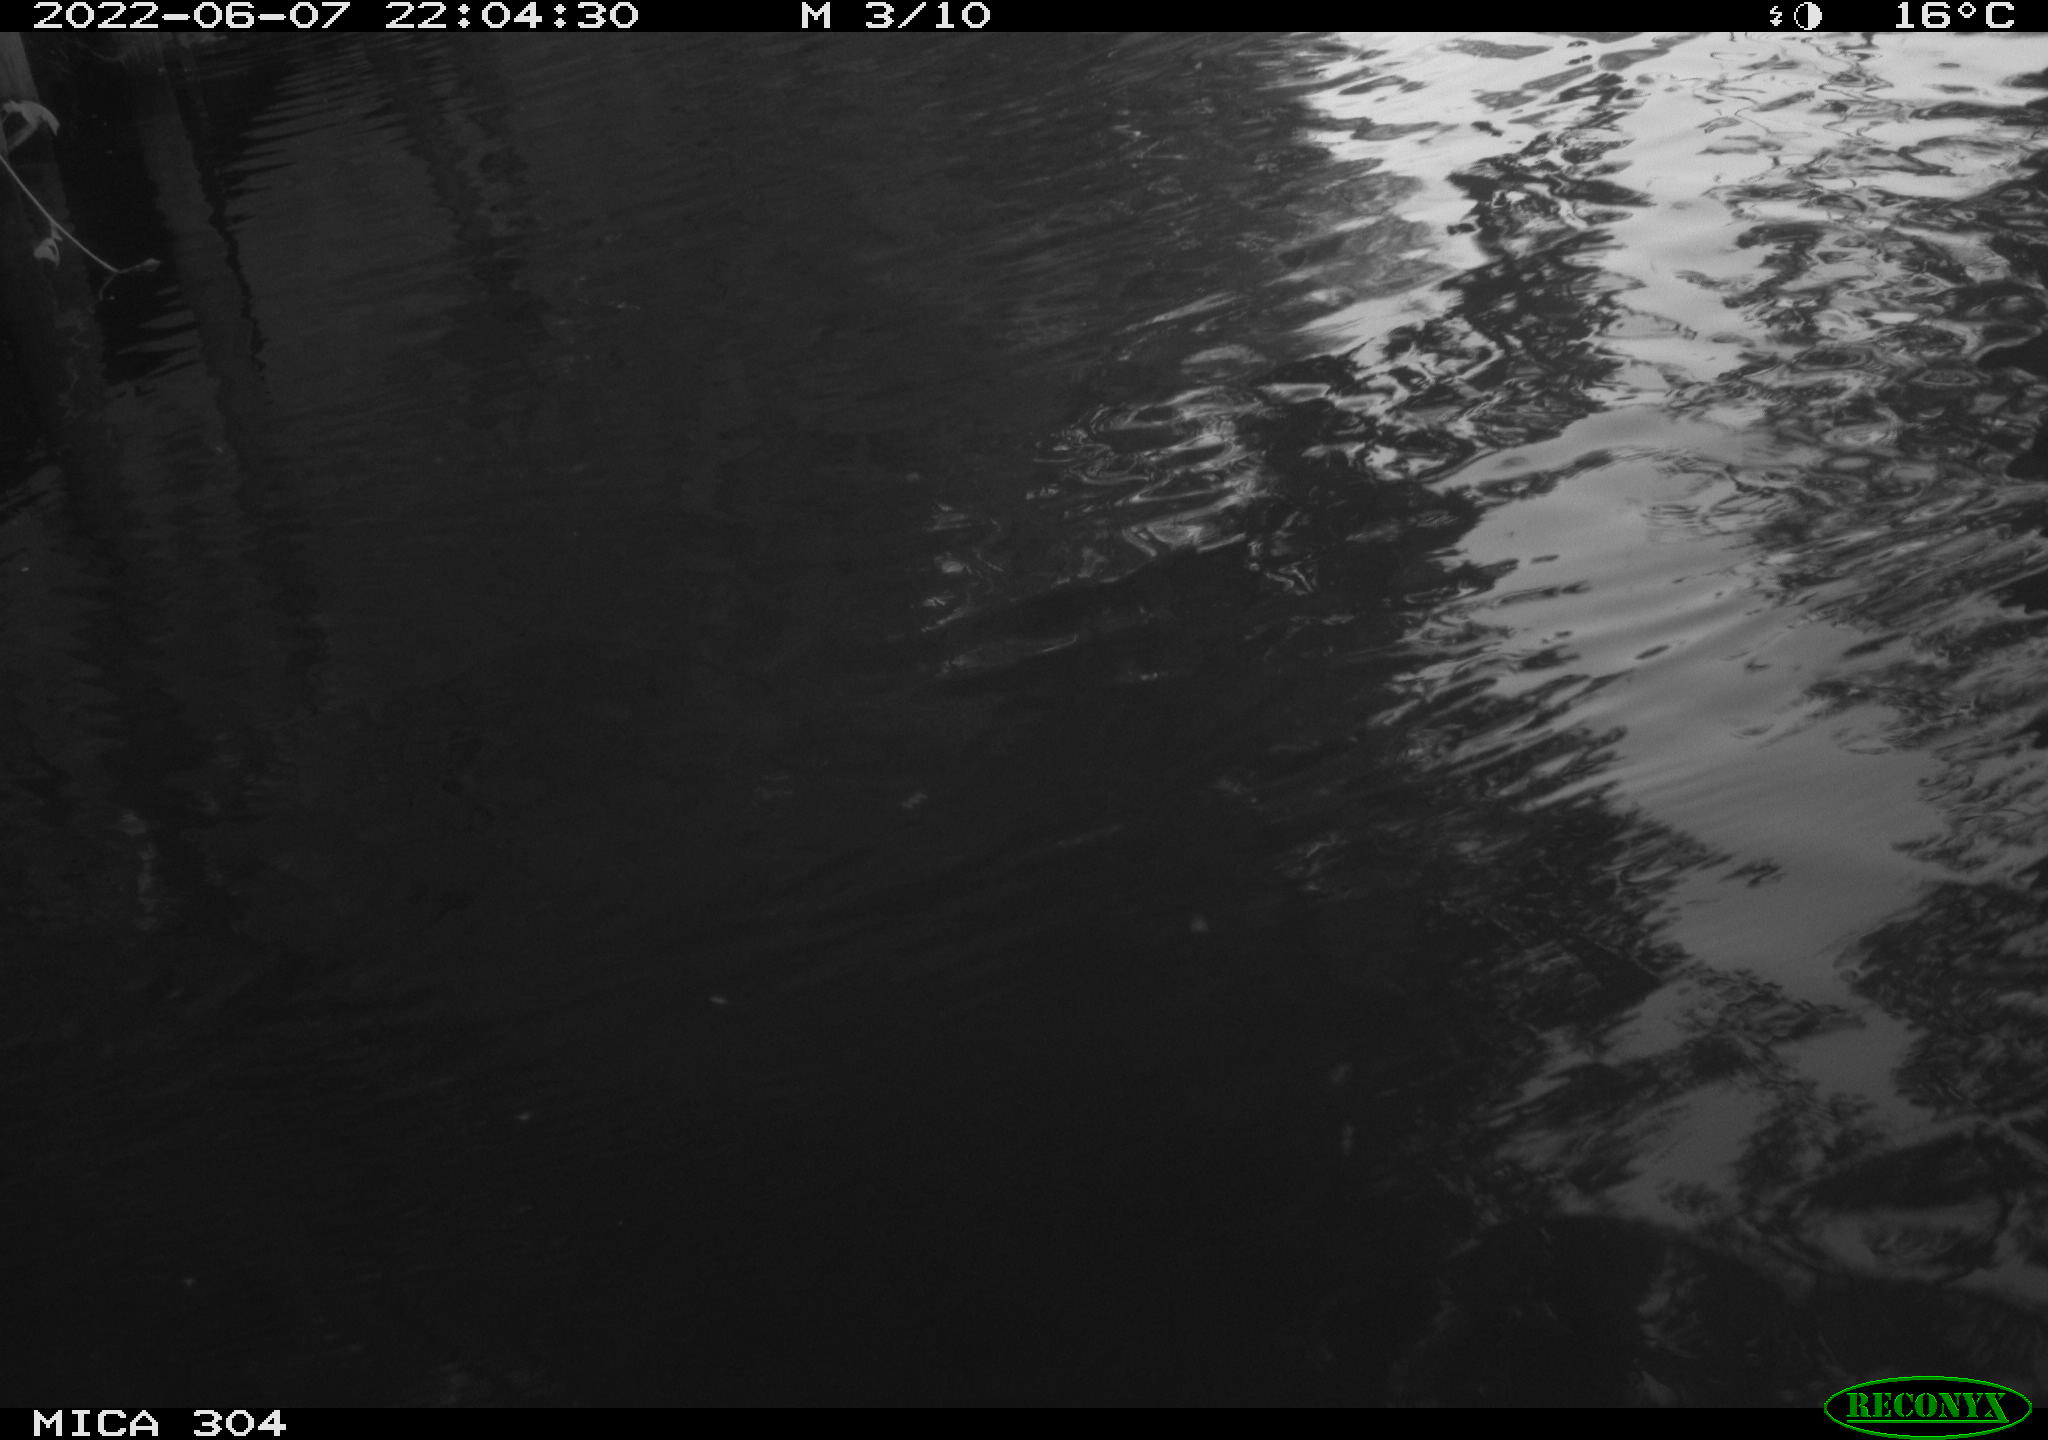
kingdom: Animalia
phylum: Chordata
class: Aves
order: Anseriformes
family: Anatidae
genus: Anas
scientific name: Anas platyrhynchos
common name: Mallard
